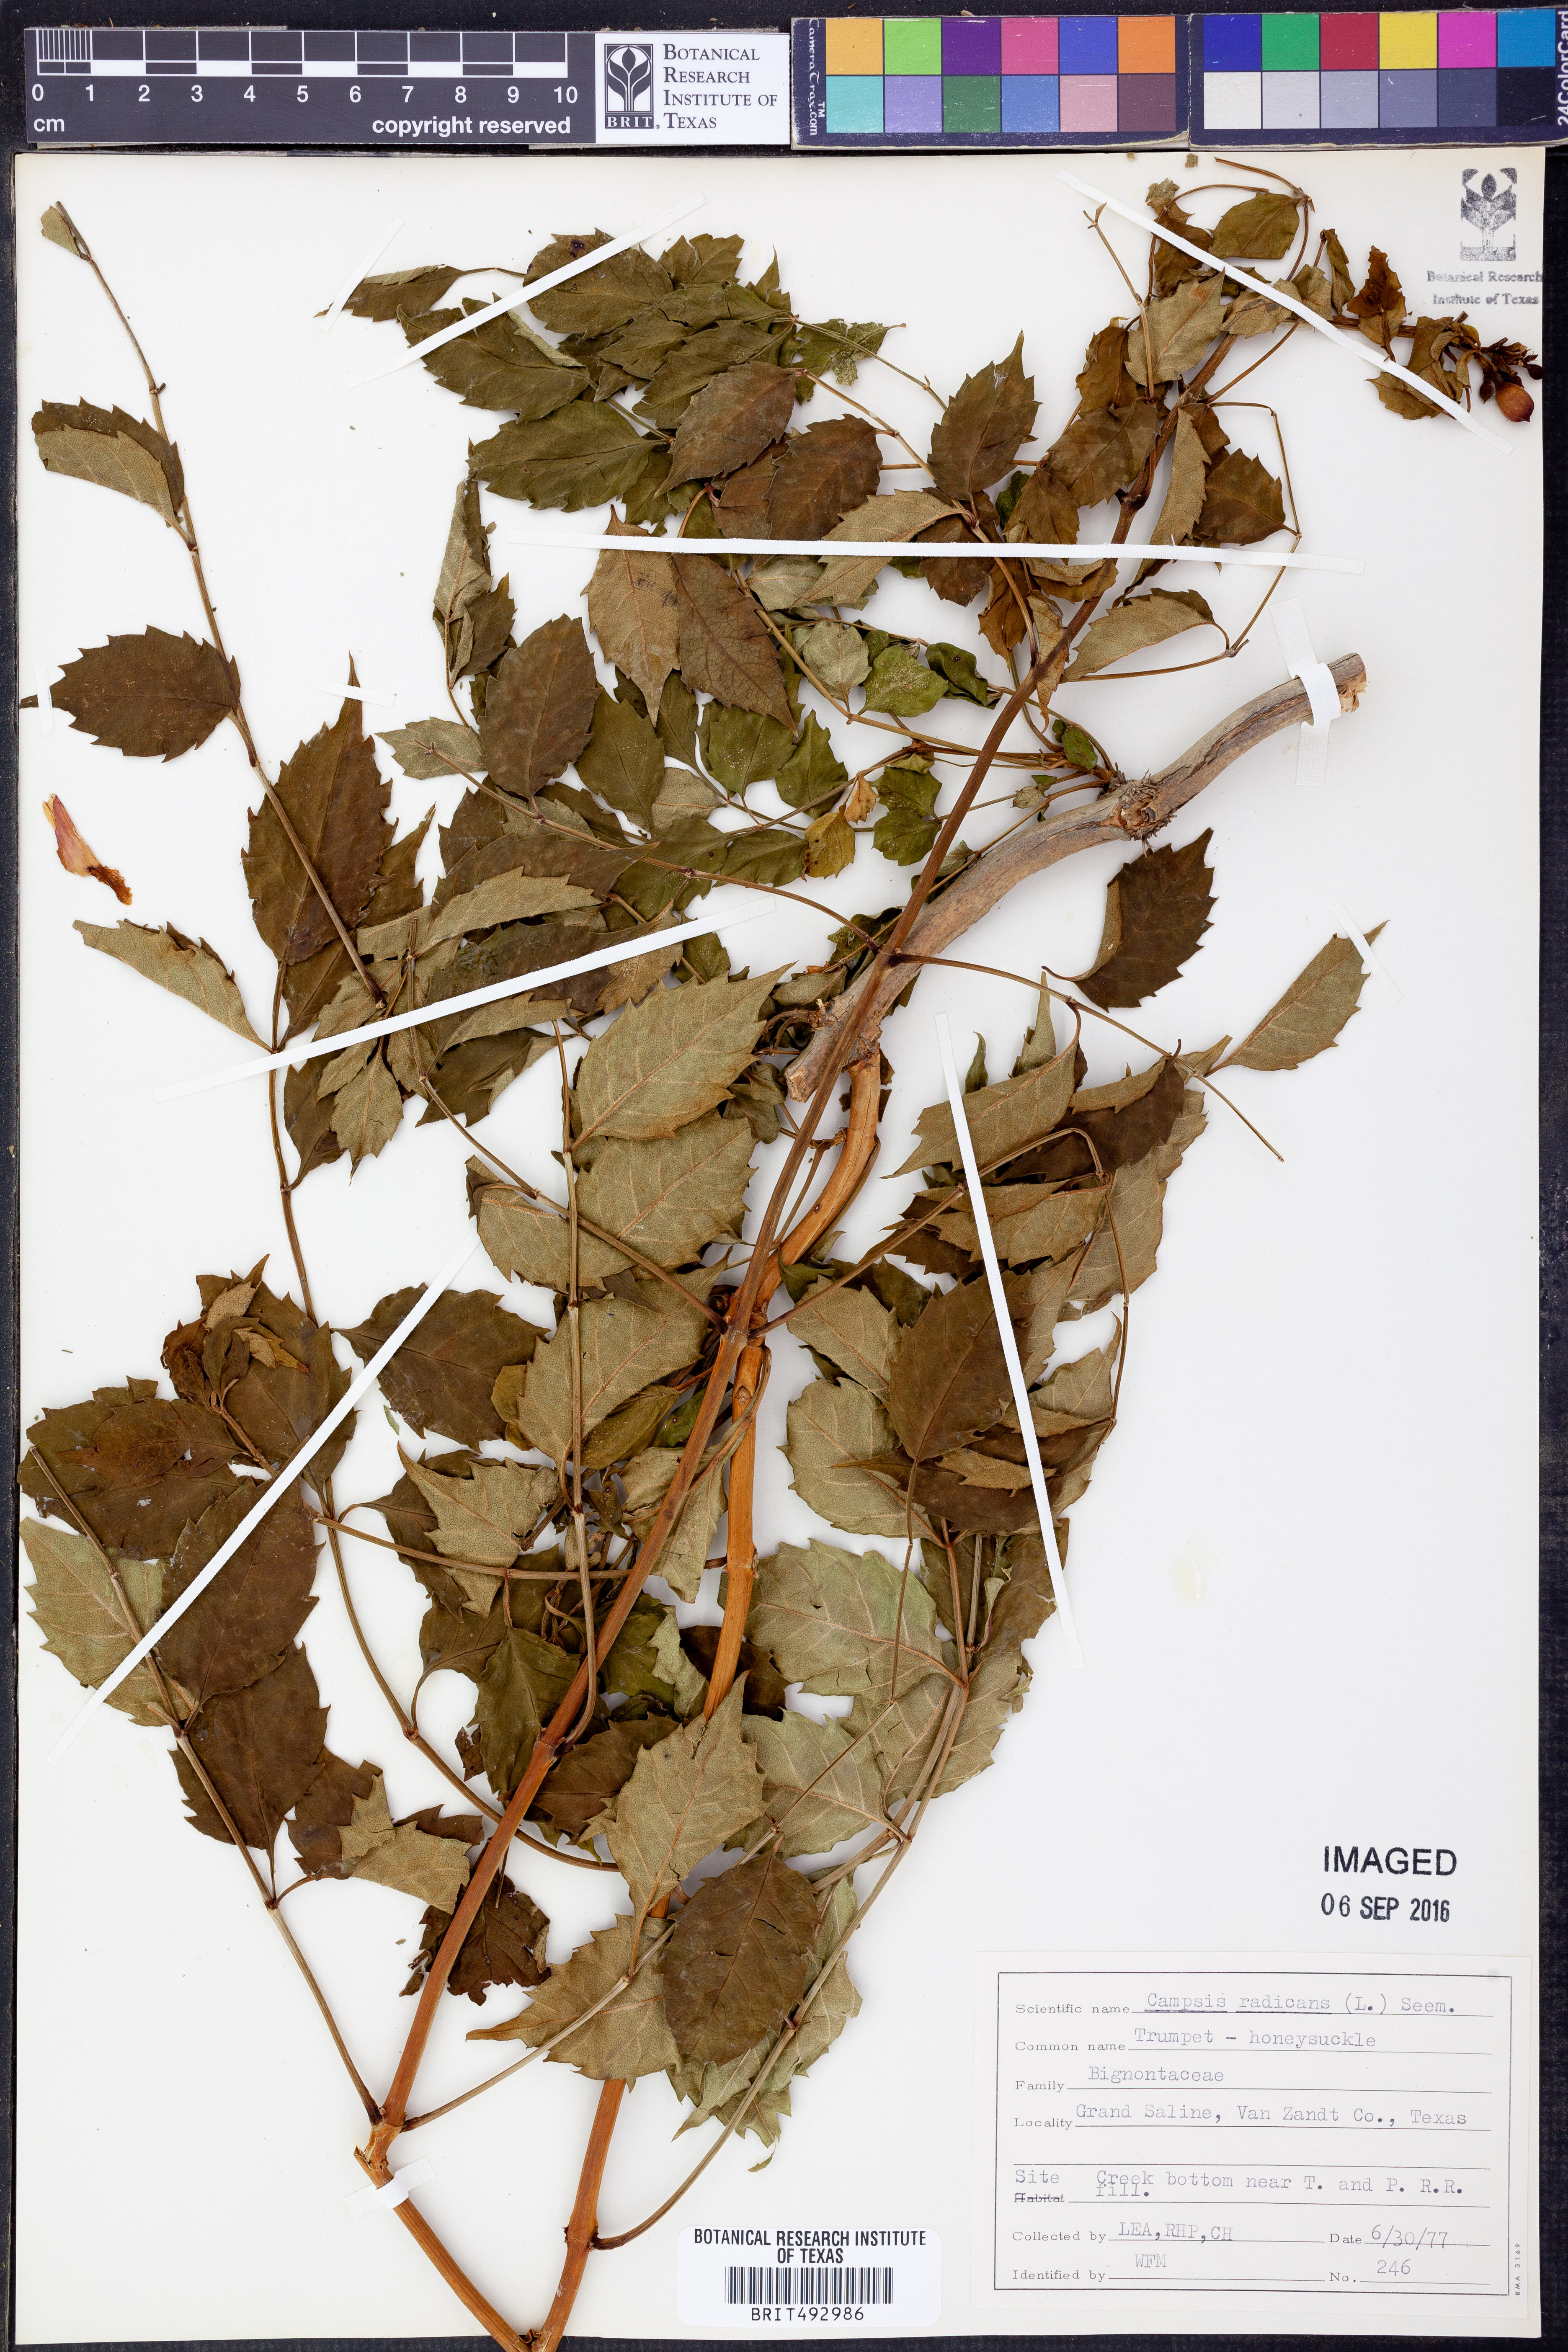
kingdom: Plantae
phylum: Tracheophyta
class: Magnoliopsida
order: Lamiales
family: Bignoniaceae
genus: Campsis
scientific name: Campsis radicans
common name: Trumpet-creeper
